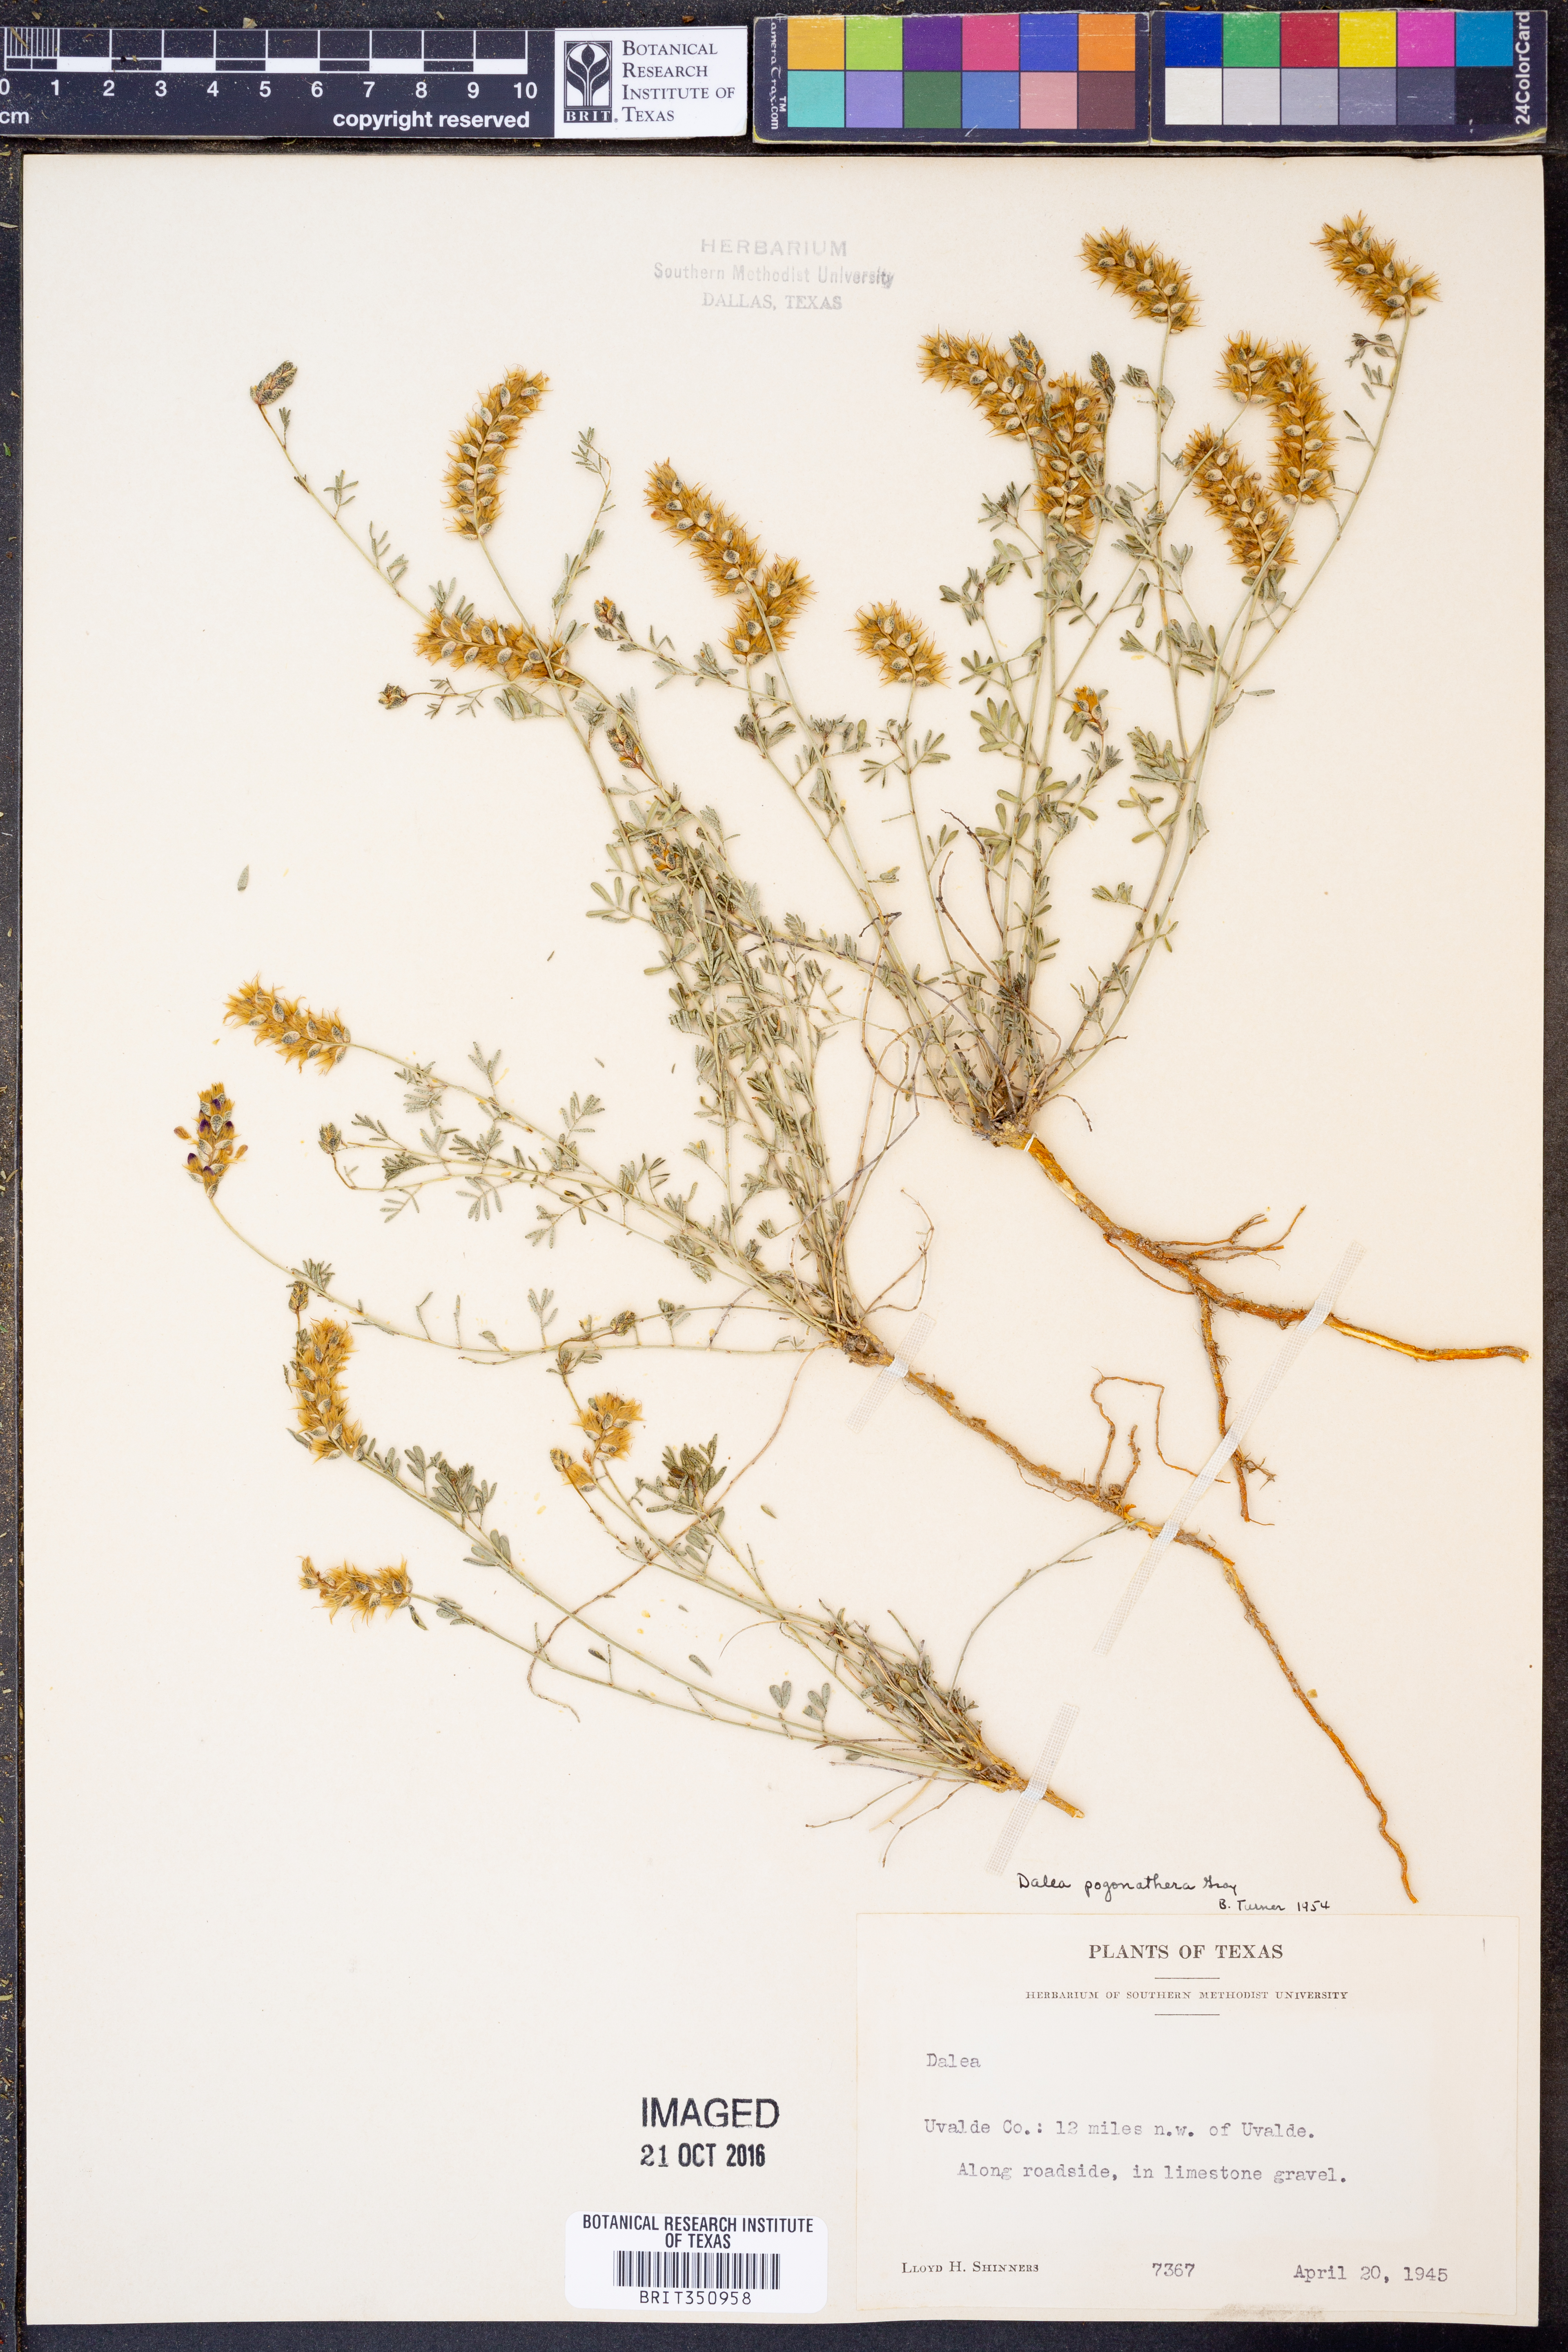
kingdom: Plantae
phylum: Tracheophyta
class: Magnoliopsida
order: Fabales
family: Fabaceae
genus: Dalea
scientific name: Dalea pogonathera
